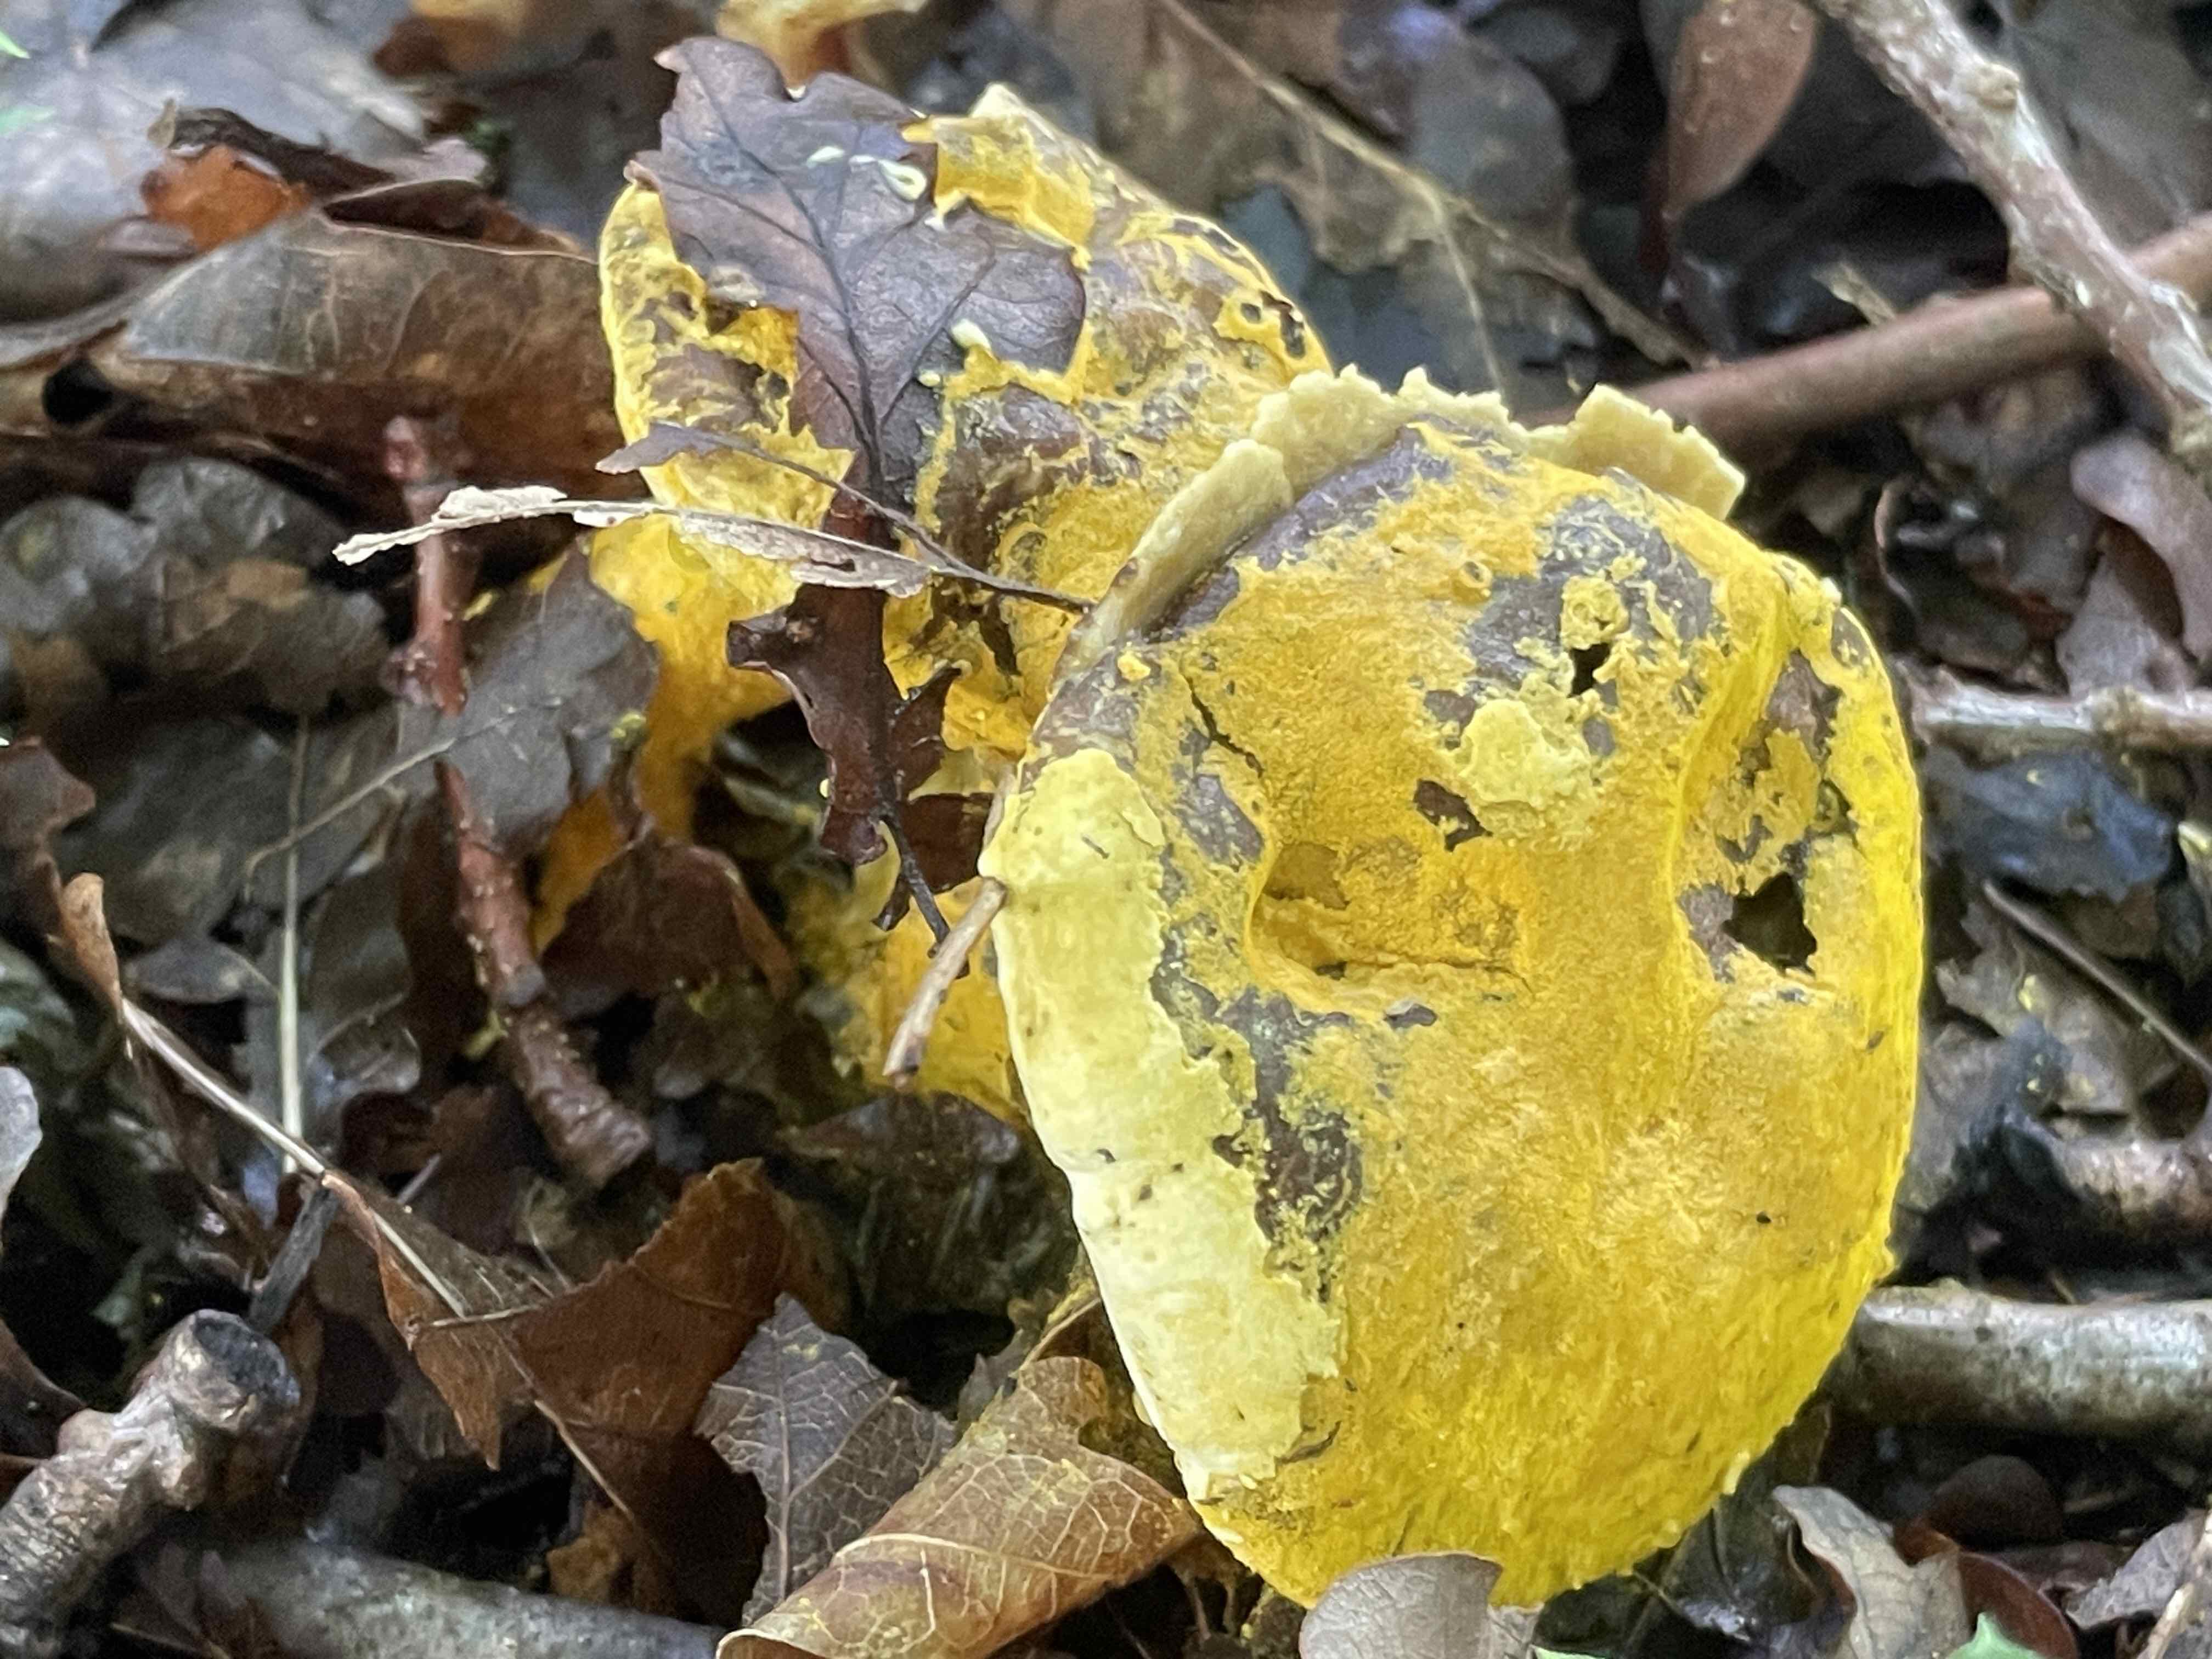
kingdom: Fungi
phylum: Ascomycota
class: Sordariomycetes
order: Hypocreales
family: Hypocreaceae
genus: Hypomyces
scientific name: Hypomyces microspermus
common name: dværgrørhat-snylteskorpe
